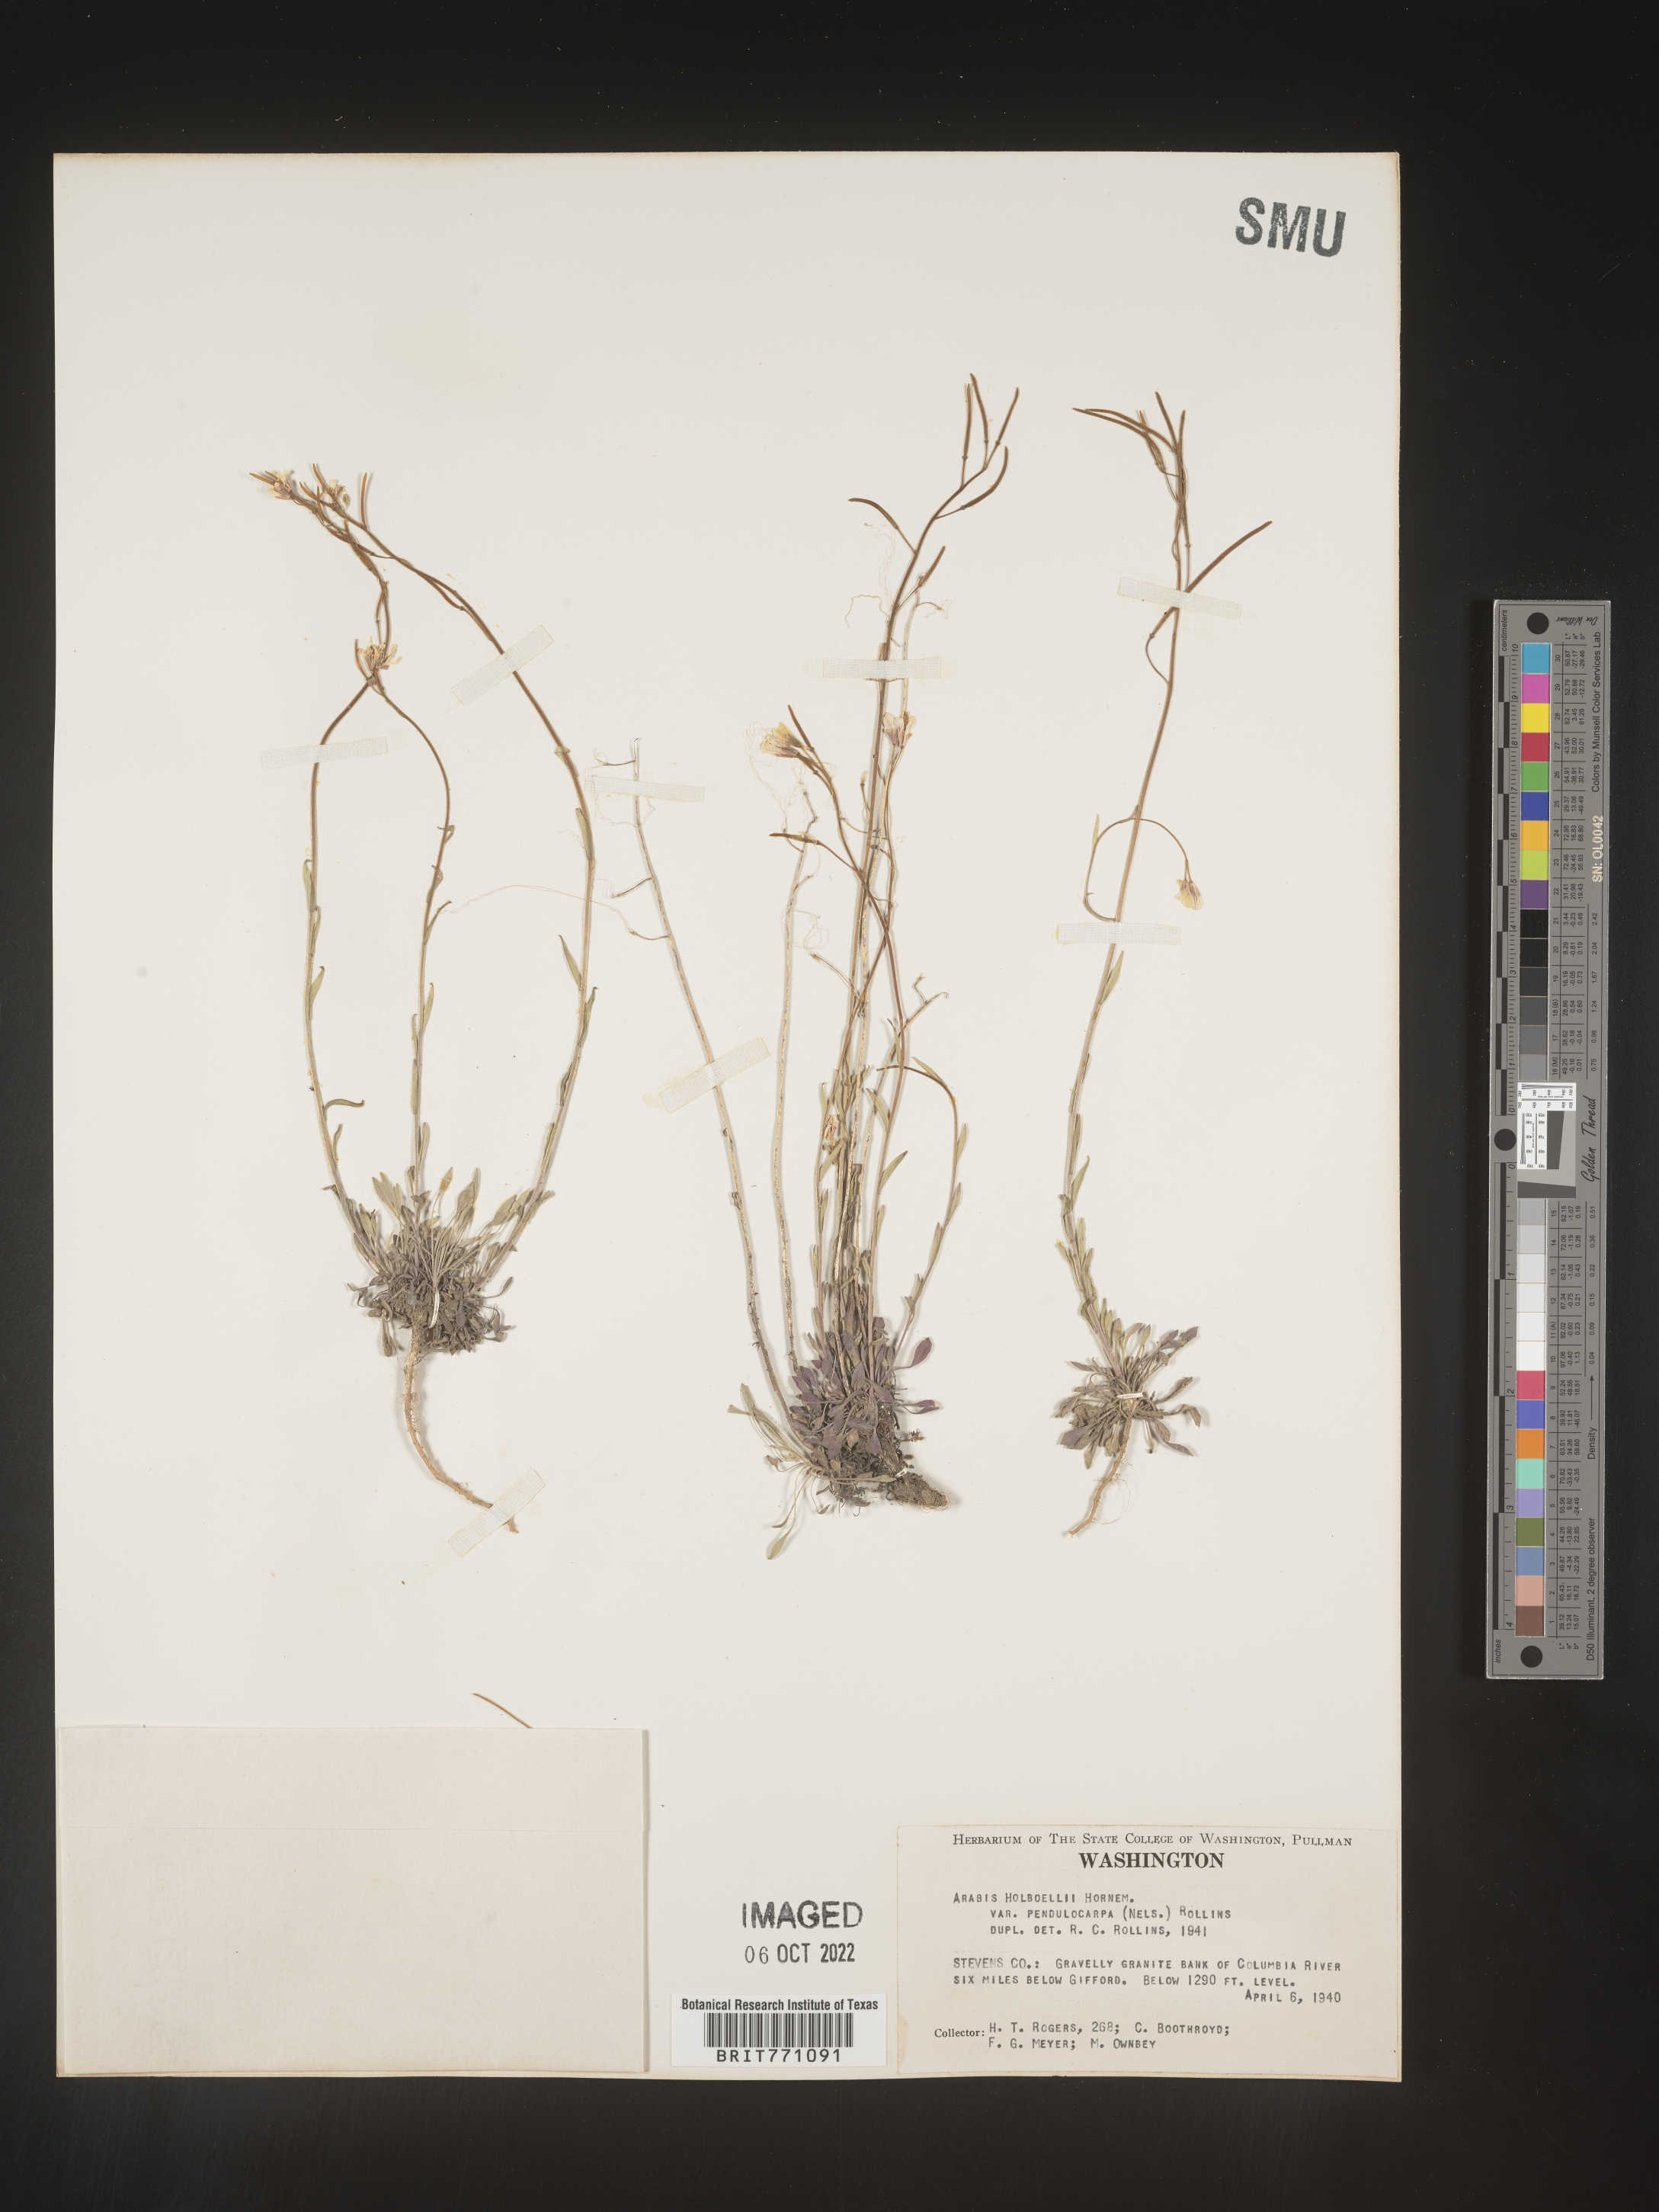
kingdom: Plantae
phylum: Tracheophyta
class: Magnoliopsida
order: Brassicales
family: Brassicaceae
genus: Boechera
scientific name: Boechera holboellii
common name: Holboell's rockcress
